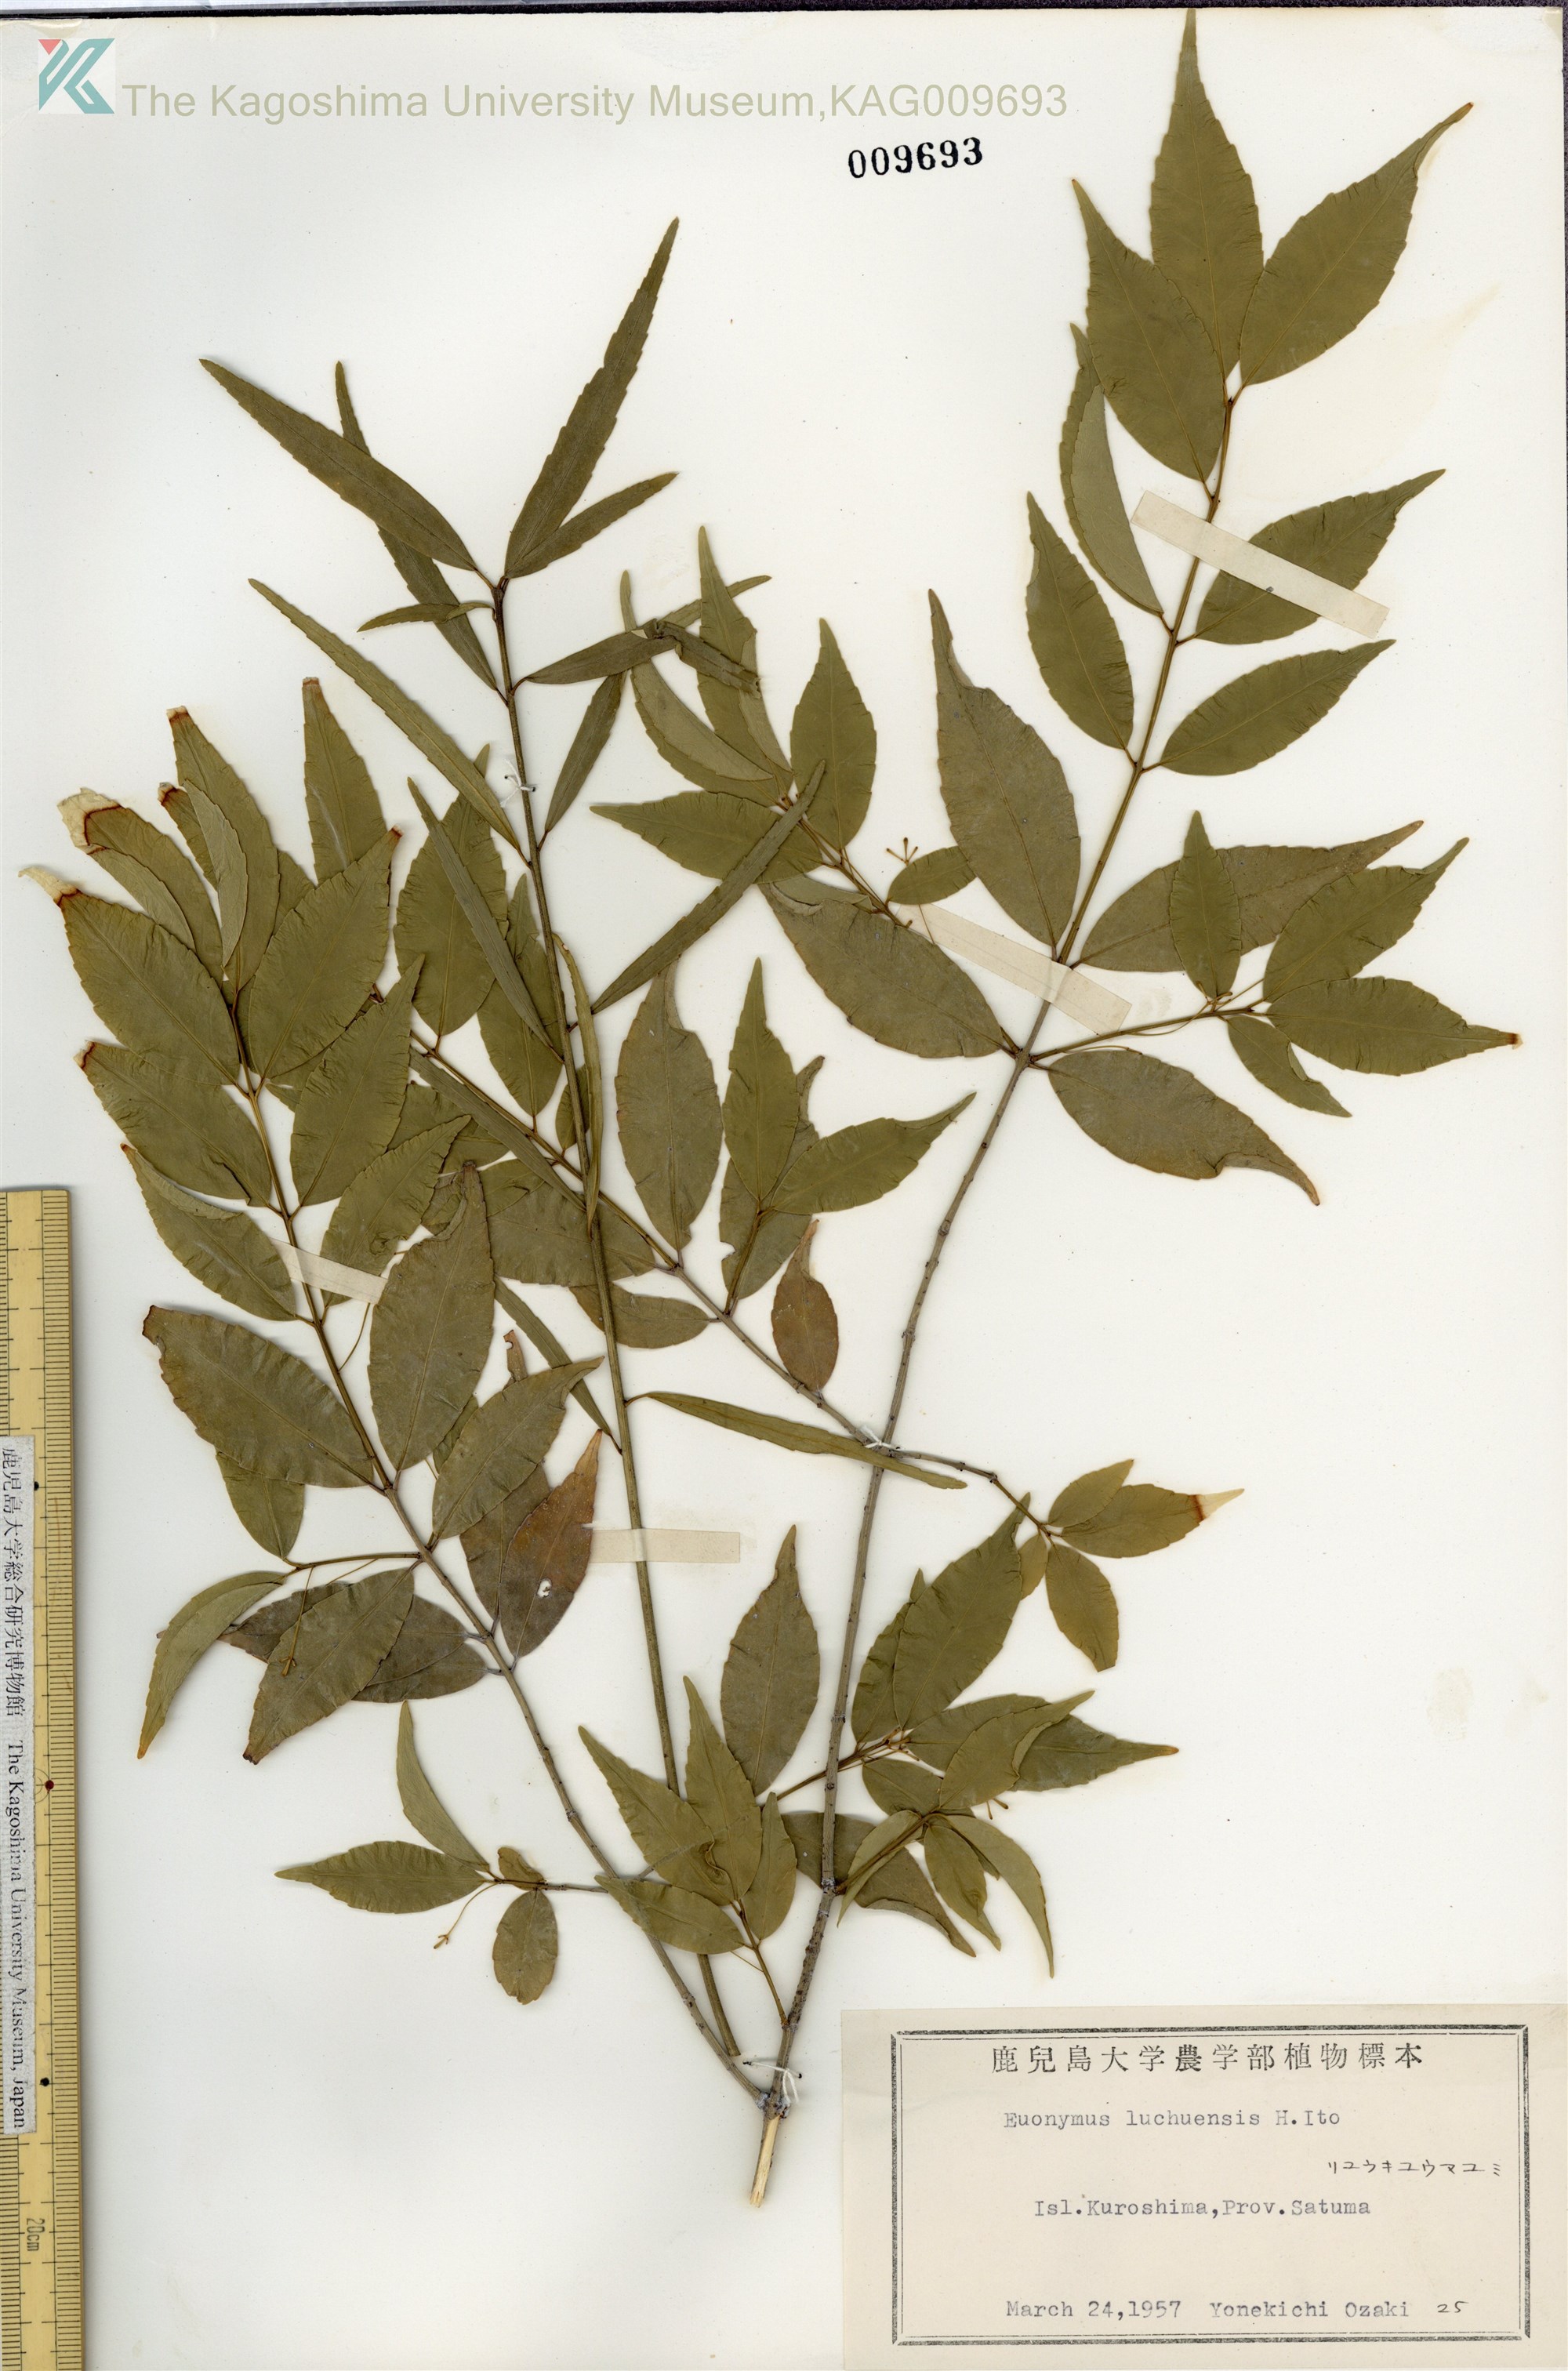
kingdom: Plantae
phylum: Tracheophyta
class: Magnoliopsida
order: Celastrales
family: Celastraceae
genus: Euonymus
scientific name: Euonymus lutchuensis
